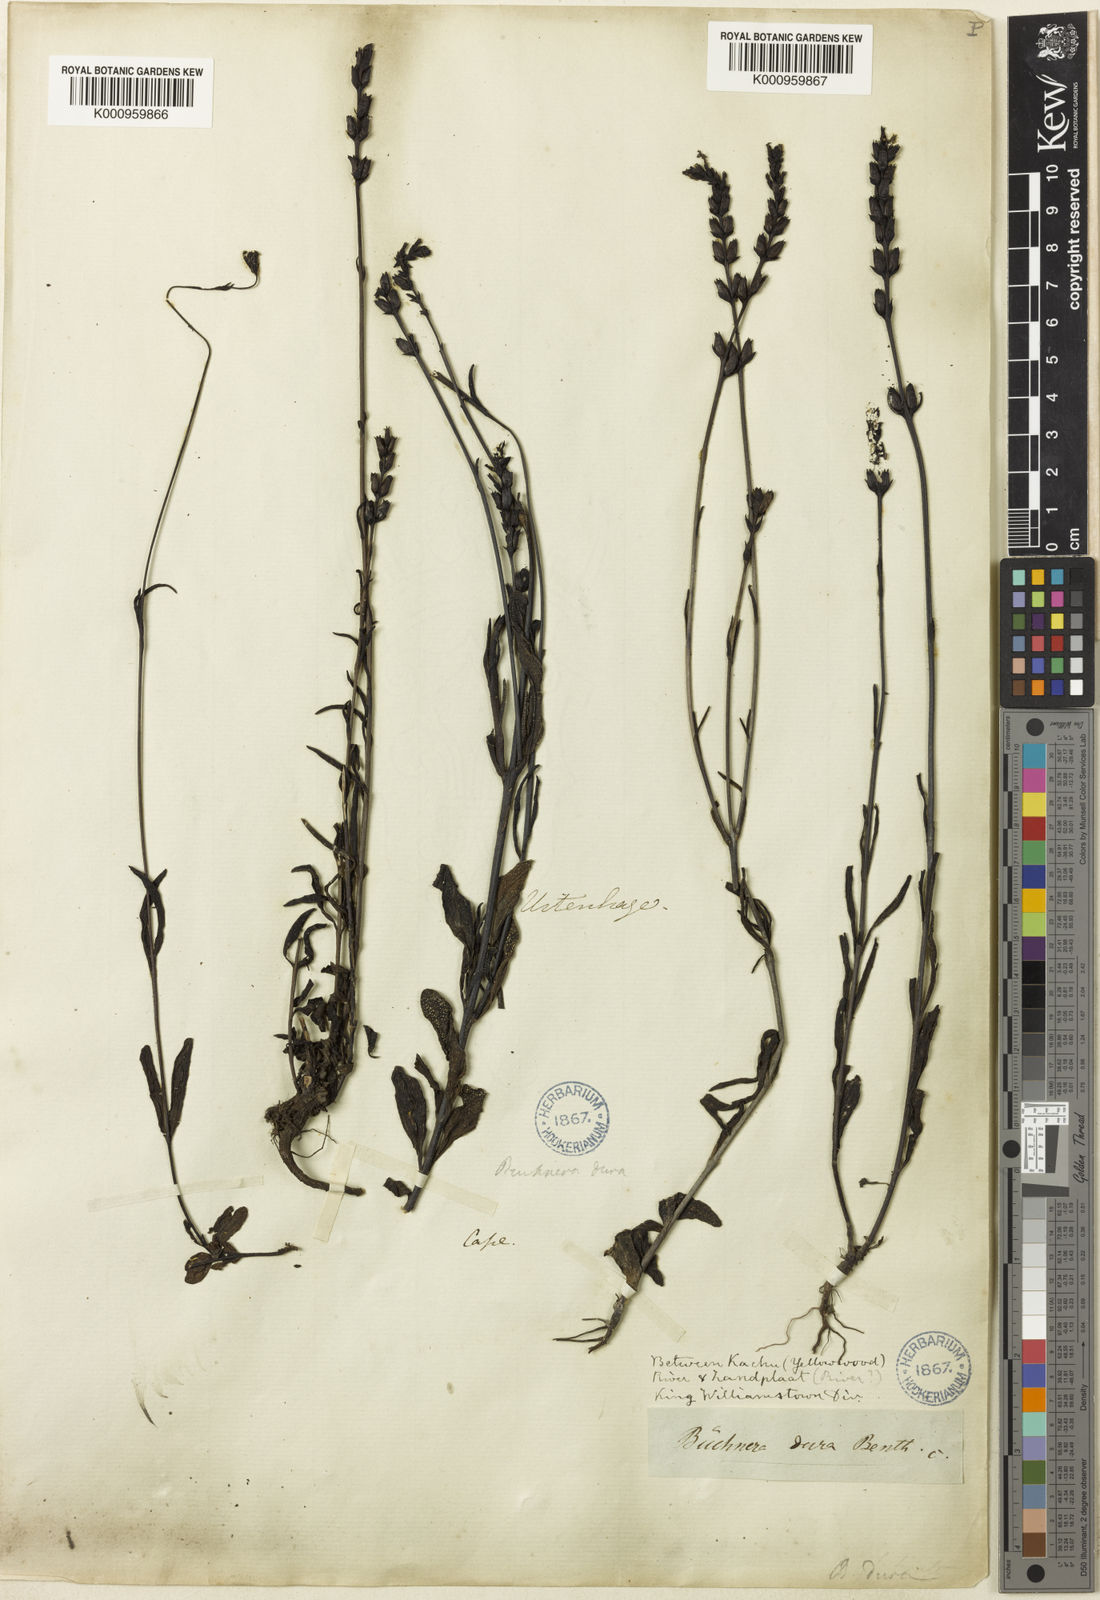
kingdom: Plantae
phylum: Tracheophyta
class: Magnoliopsida
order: Lamiales
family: Orobanchaceae
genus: Buchnera
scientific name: Buchnera dura
